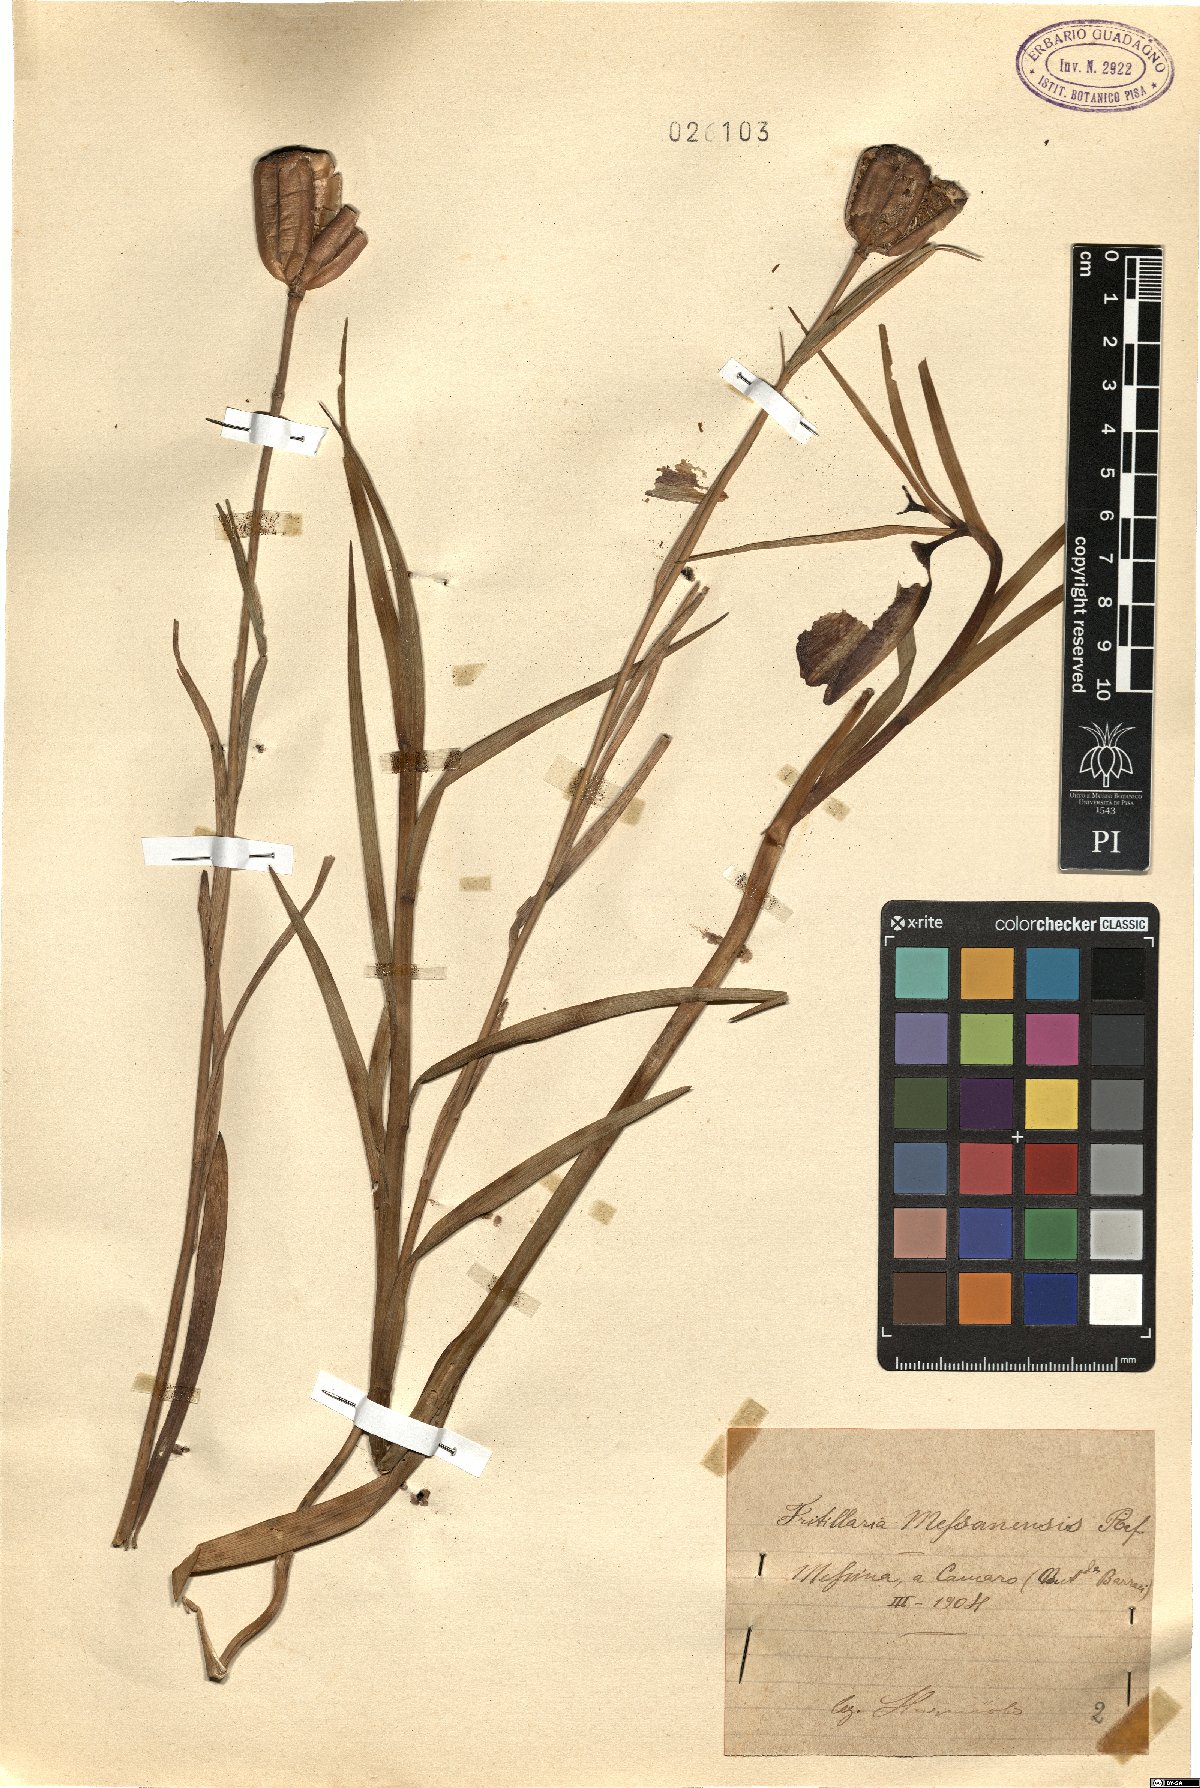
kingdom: Plantae
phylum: Tracheophyta
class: Liliopsida
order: Liliales
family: Liliaceae
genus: Fritillaria
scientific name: Fritillaria messanensis
